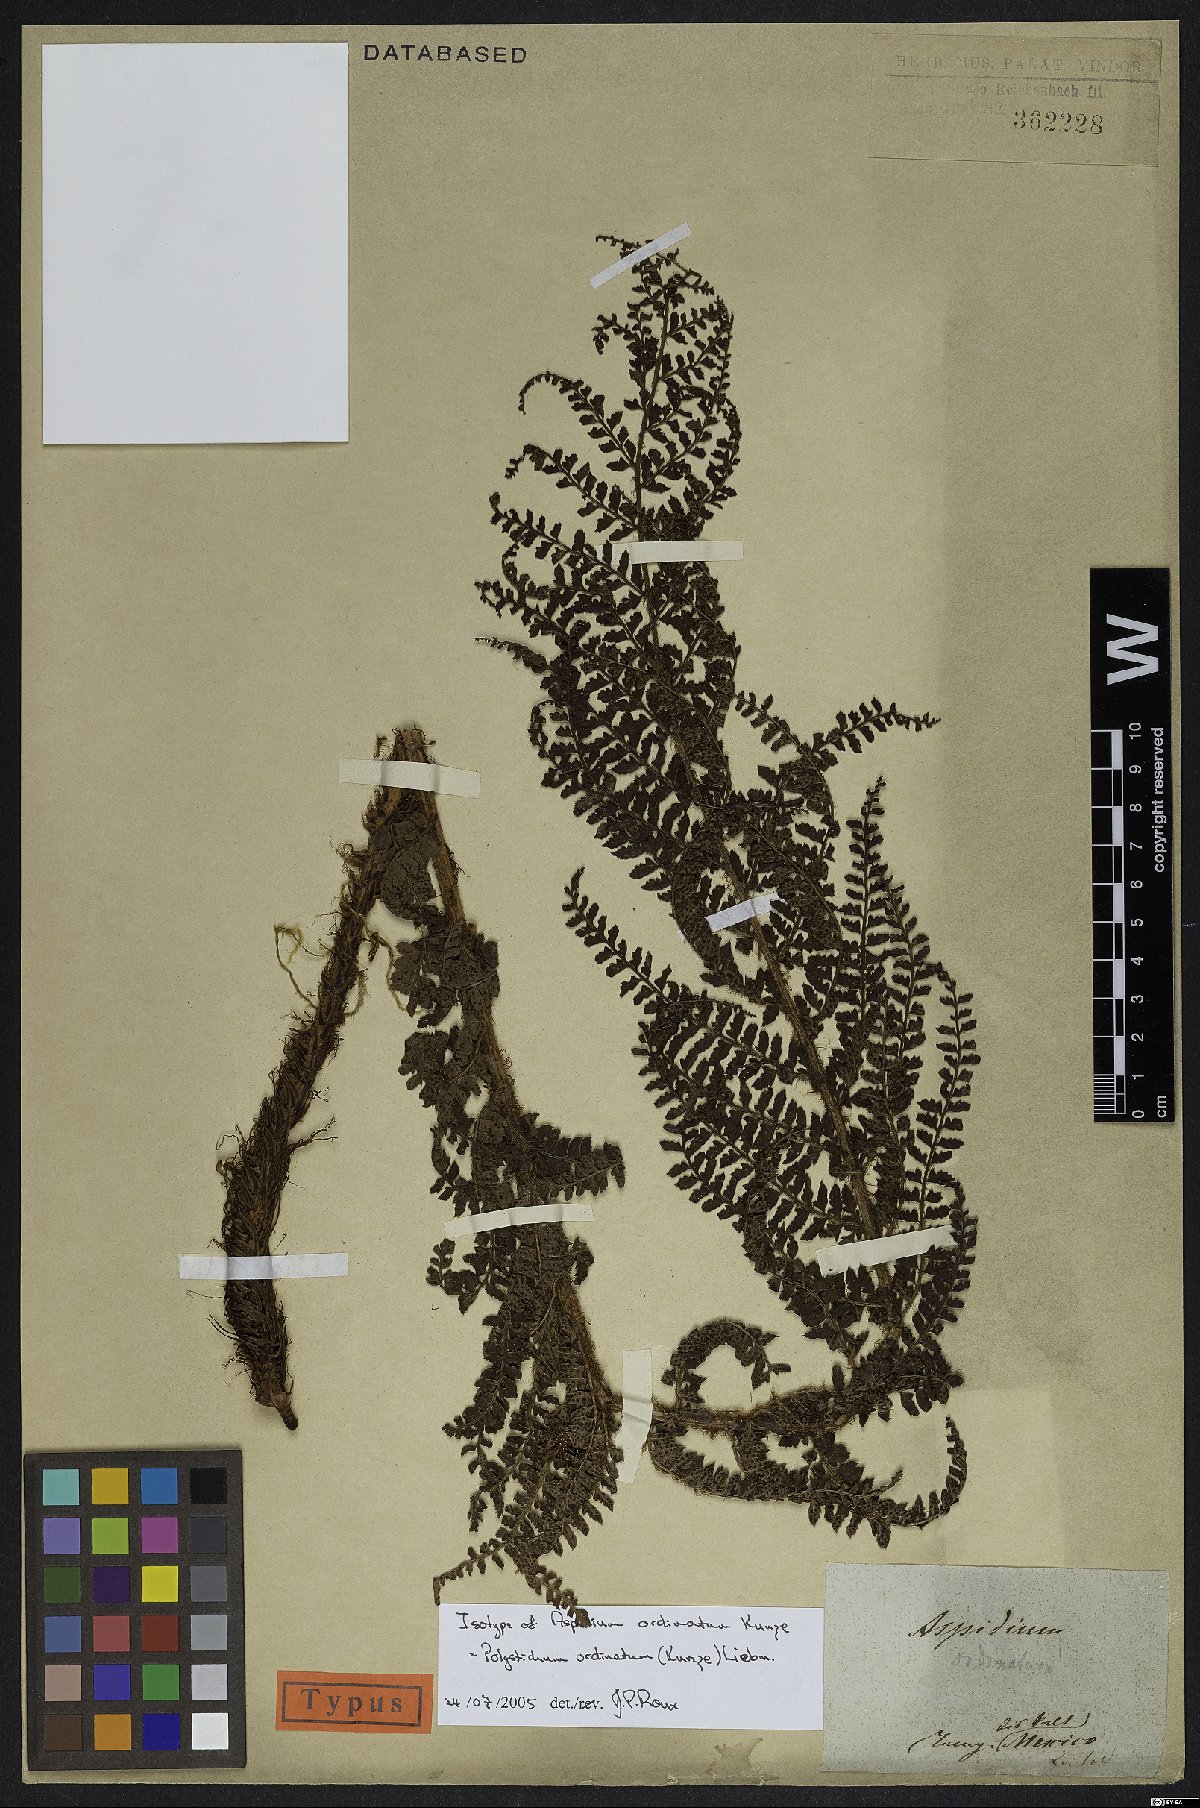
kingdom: Plantae
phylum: Tracheophyta
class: Polypodiopsida
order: Polypodiales
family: Dryopteridaceae
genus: Polystichum
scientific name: Polystichum ordinatum
